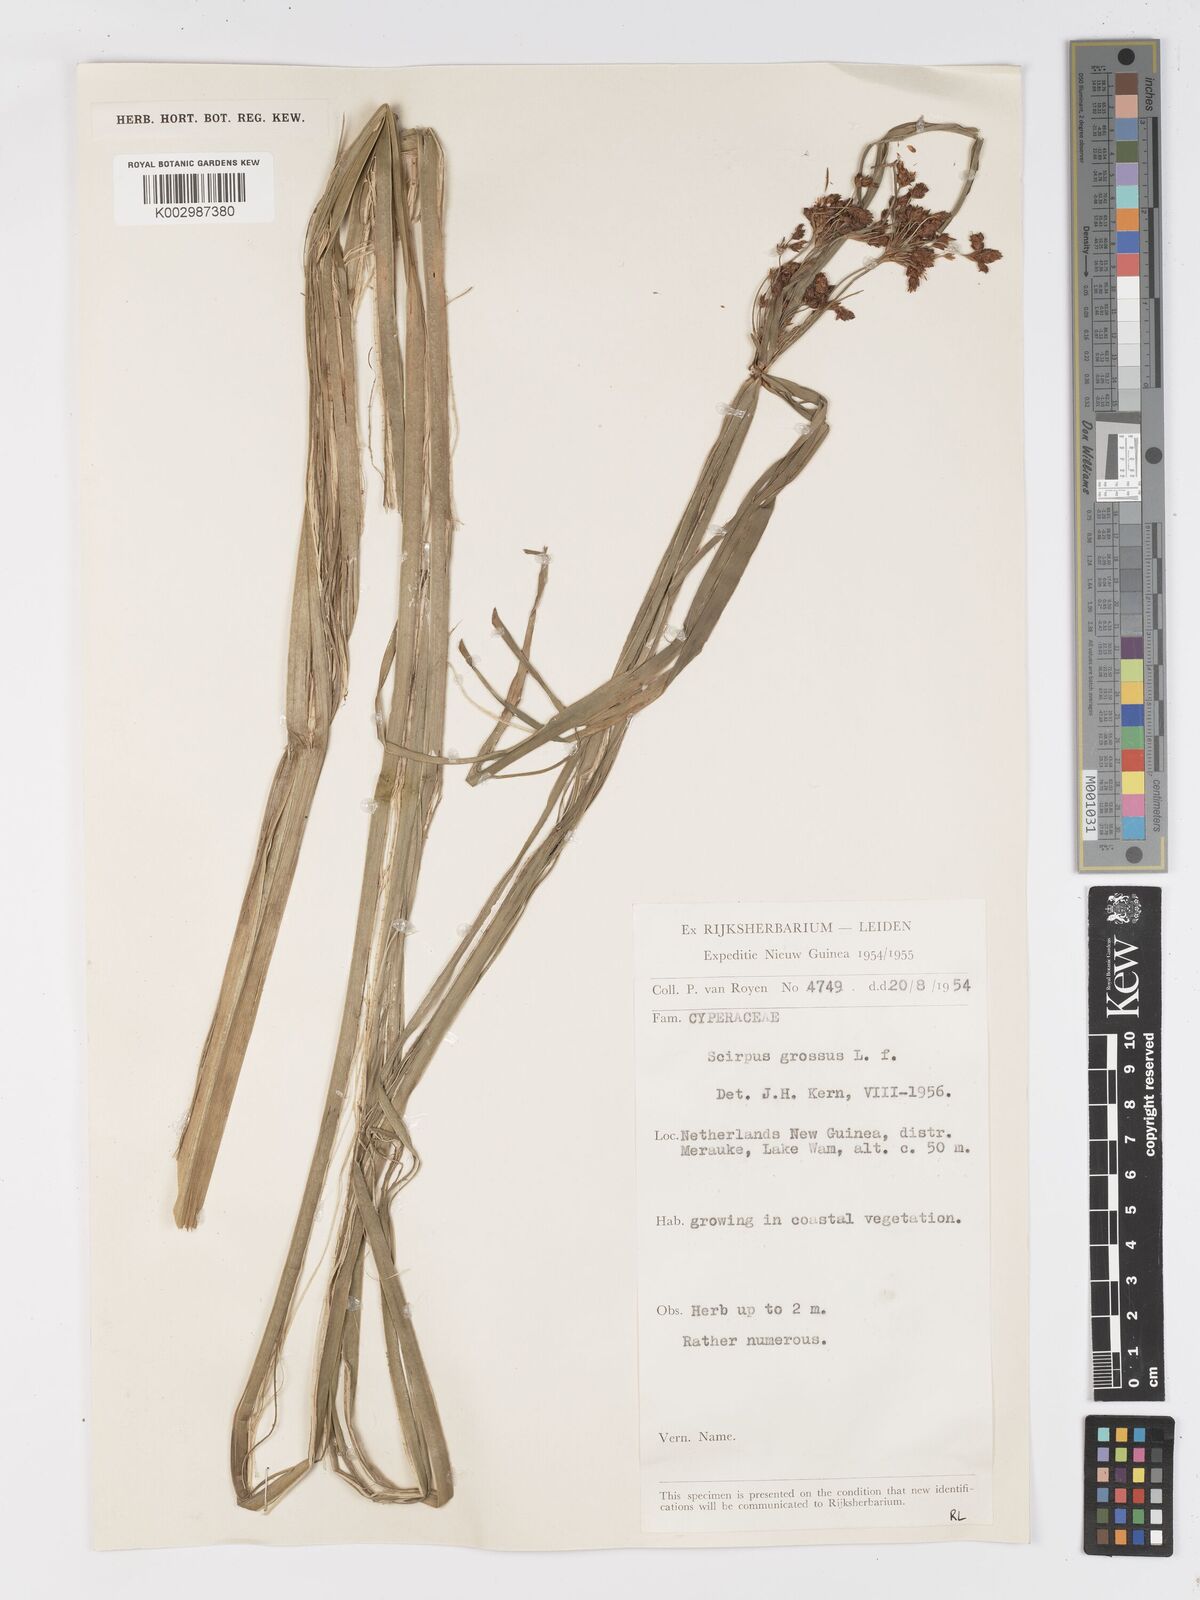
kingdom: Plantae
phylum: Tracheophyta
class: Liliopsida
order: Poales
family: Cyperaceae
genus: Actinoscirpus
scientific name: Actinoscirpus grossus
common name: Giant bur rush
